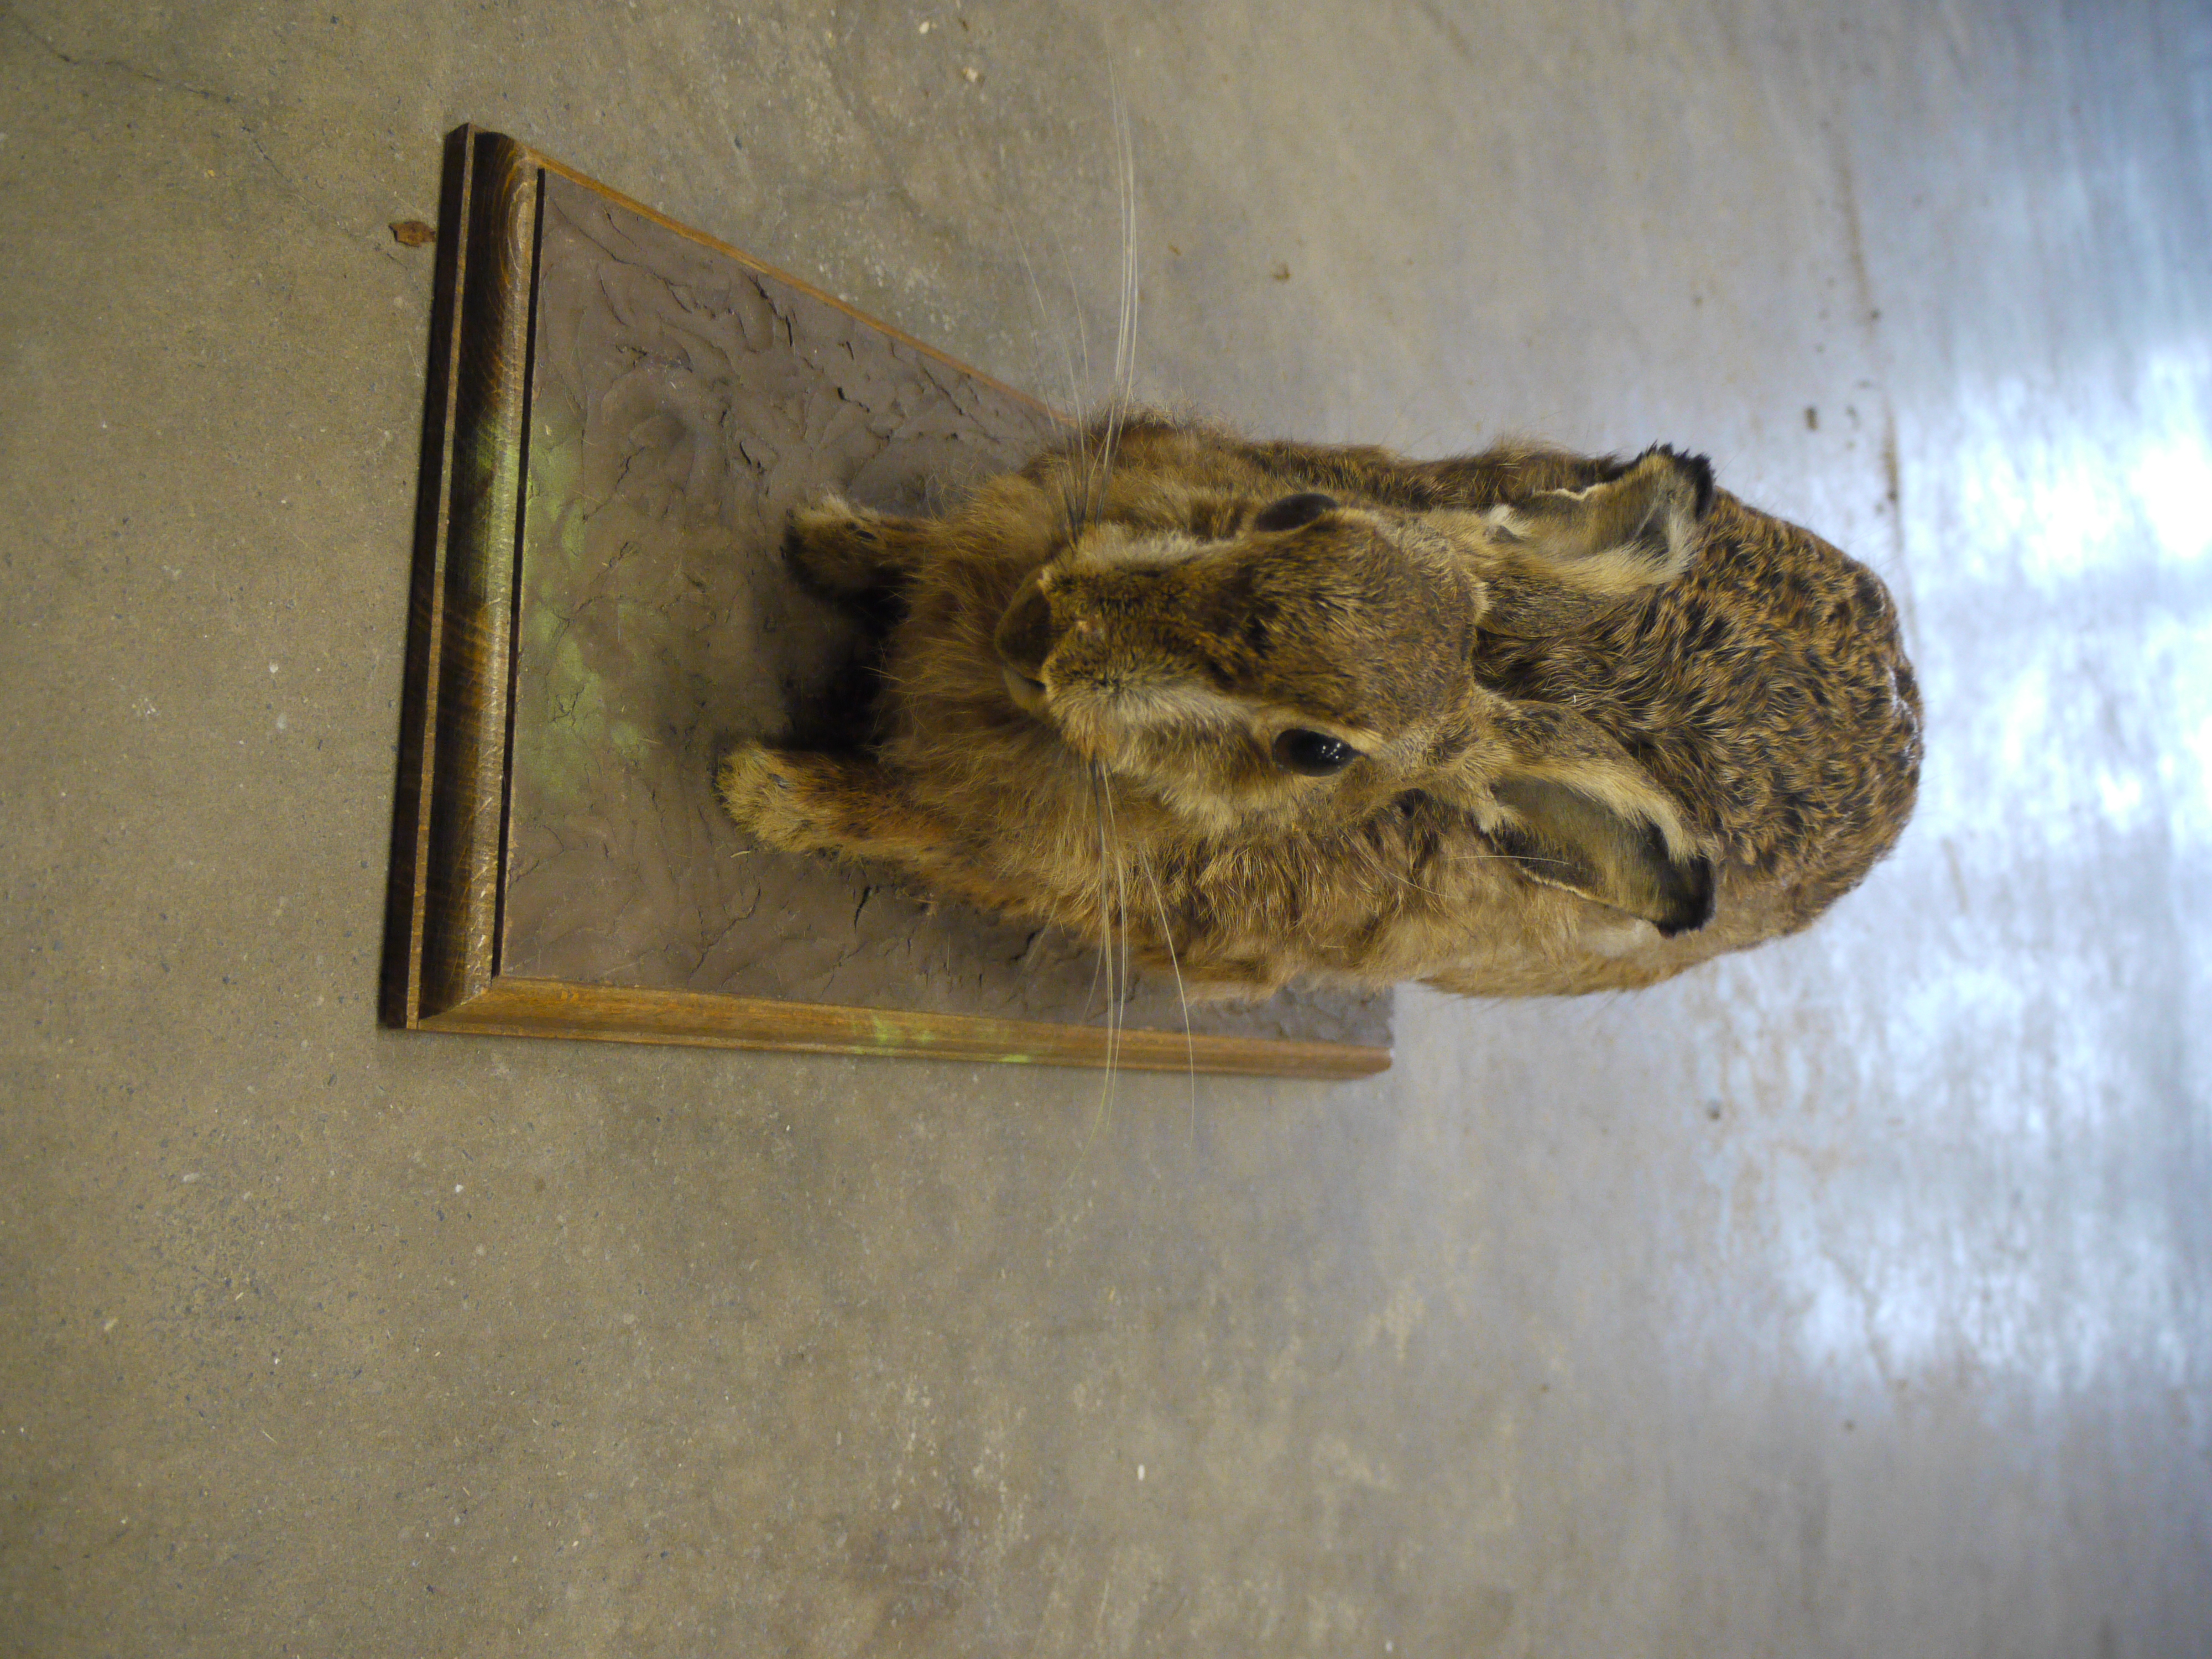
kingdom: Animalia
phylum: Chordata
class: Mammalia
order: Lagomorpha
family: Leporidae
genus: Lepus
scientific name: Lepus europaeus
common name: European hare
